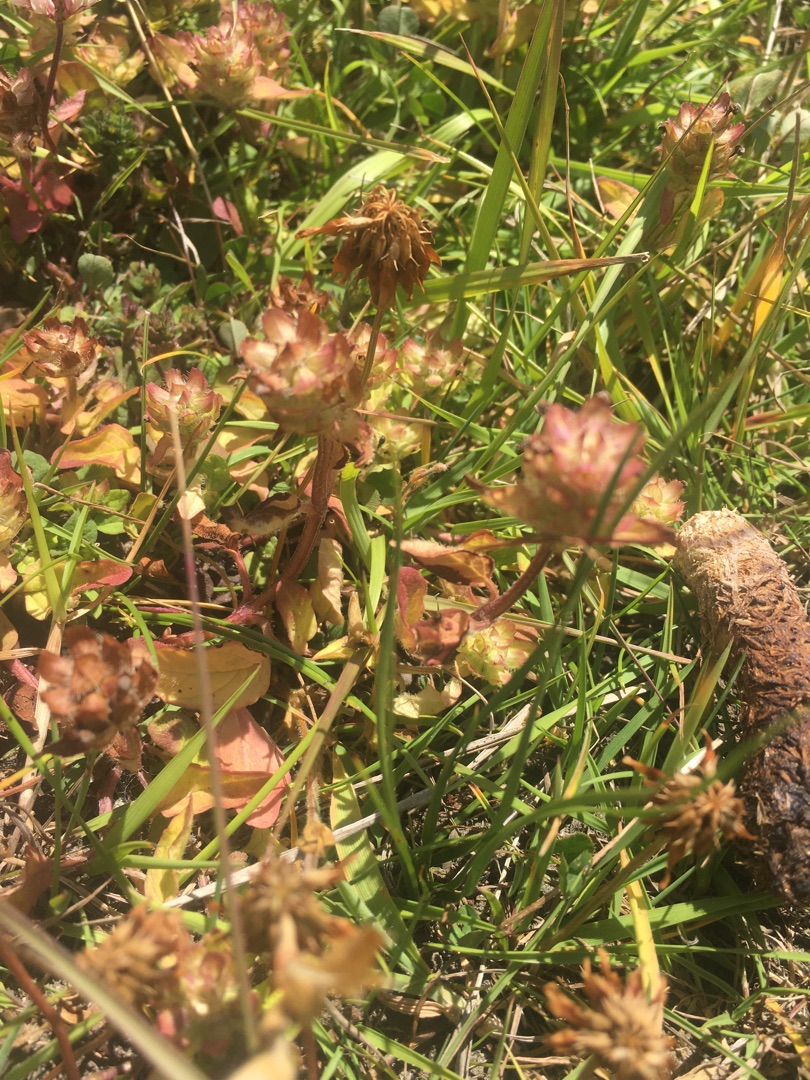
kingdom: Plantae
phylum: Tracheophyta
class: Magnoliopsida
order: Lamiales
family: Lamiaceae
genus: Prunella
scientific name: Prunella vulgaris
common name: Almindelig brunelle
